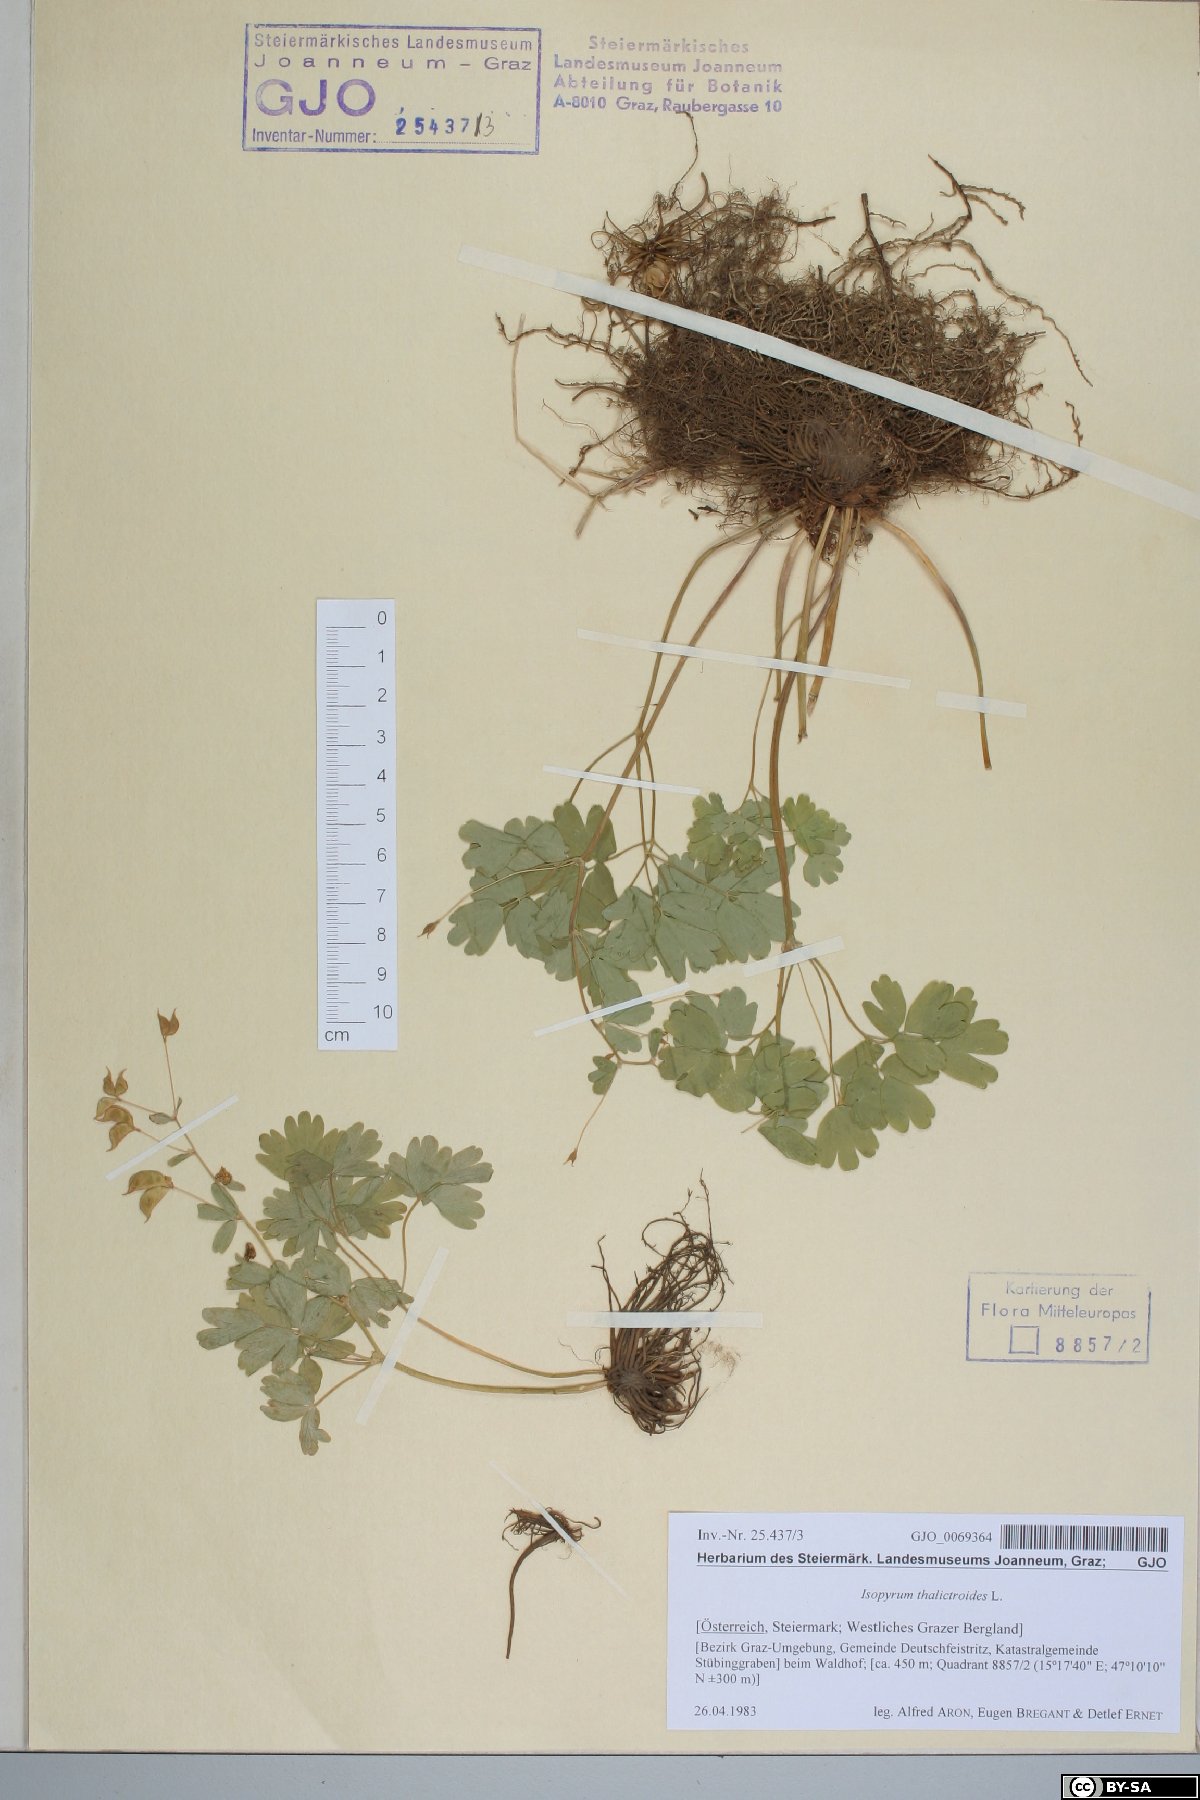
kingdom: Plantae
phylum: Tracheophyta
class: Magnoliopsida
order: Ranunculales
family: Ranunculaceae
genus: Isopyrum
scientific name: Isopyrum thalictroides
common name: Isopyrum
